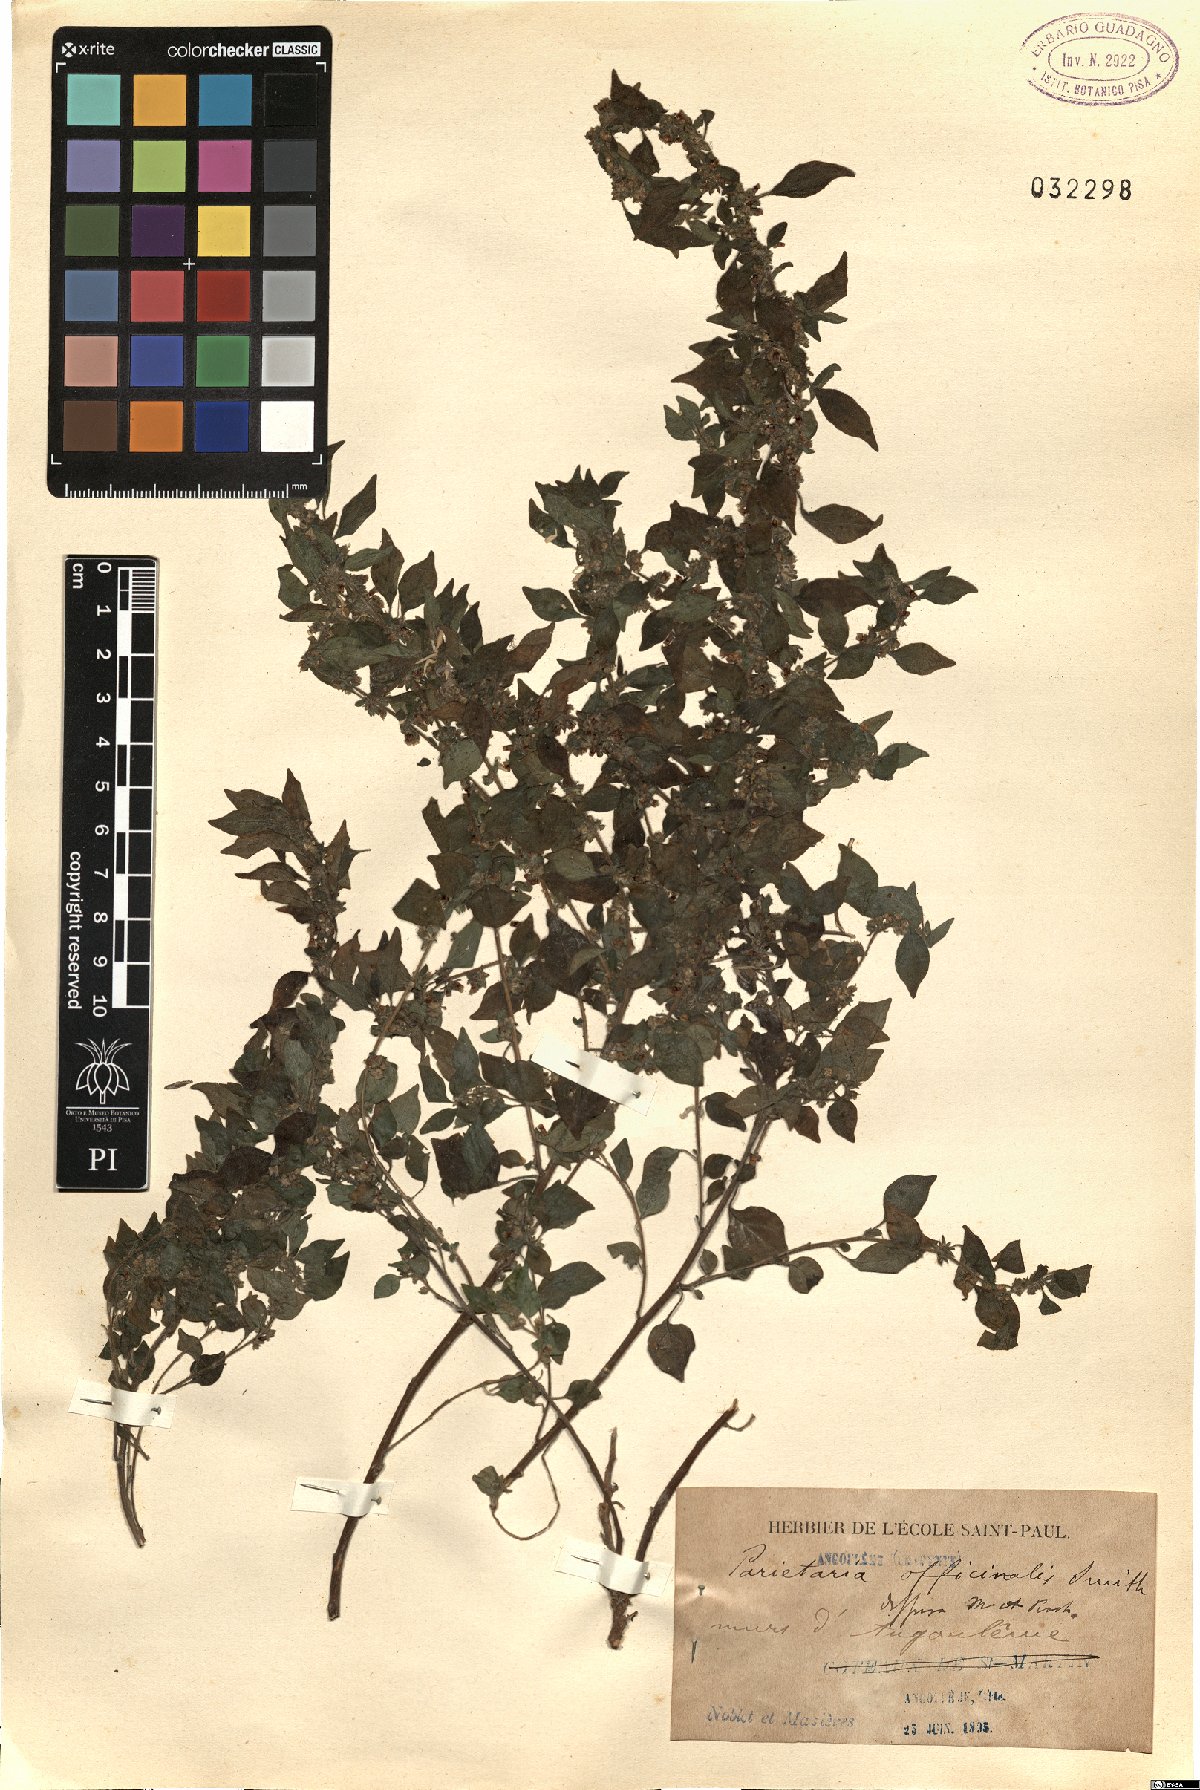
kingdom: Plantae
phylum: Tracheophyta
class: Magnoliopsida
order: Rosales
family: Urticaceae
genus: Parietaria
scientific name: Parietaria judaica
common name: Pellitory-of-the-wall
